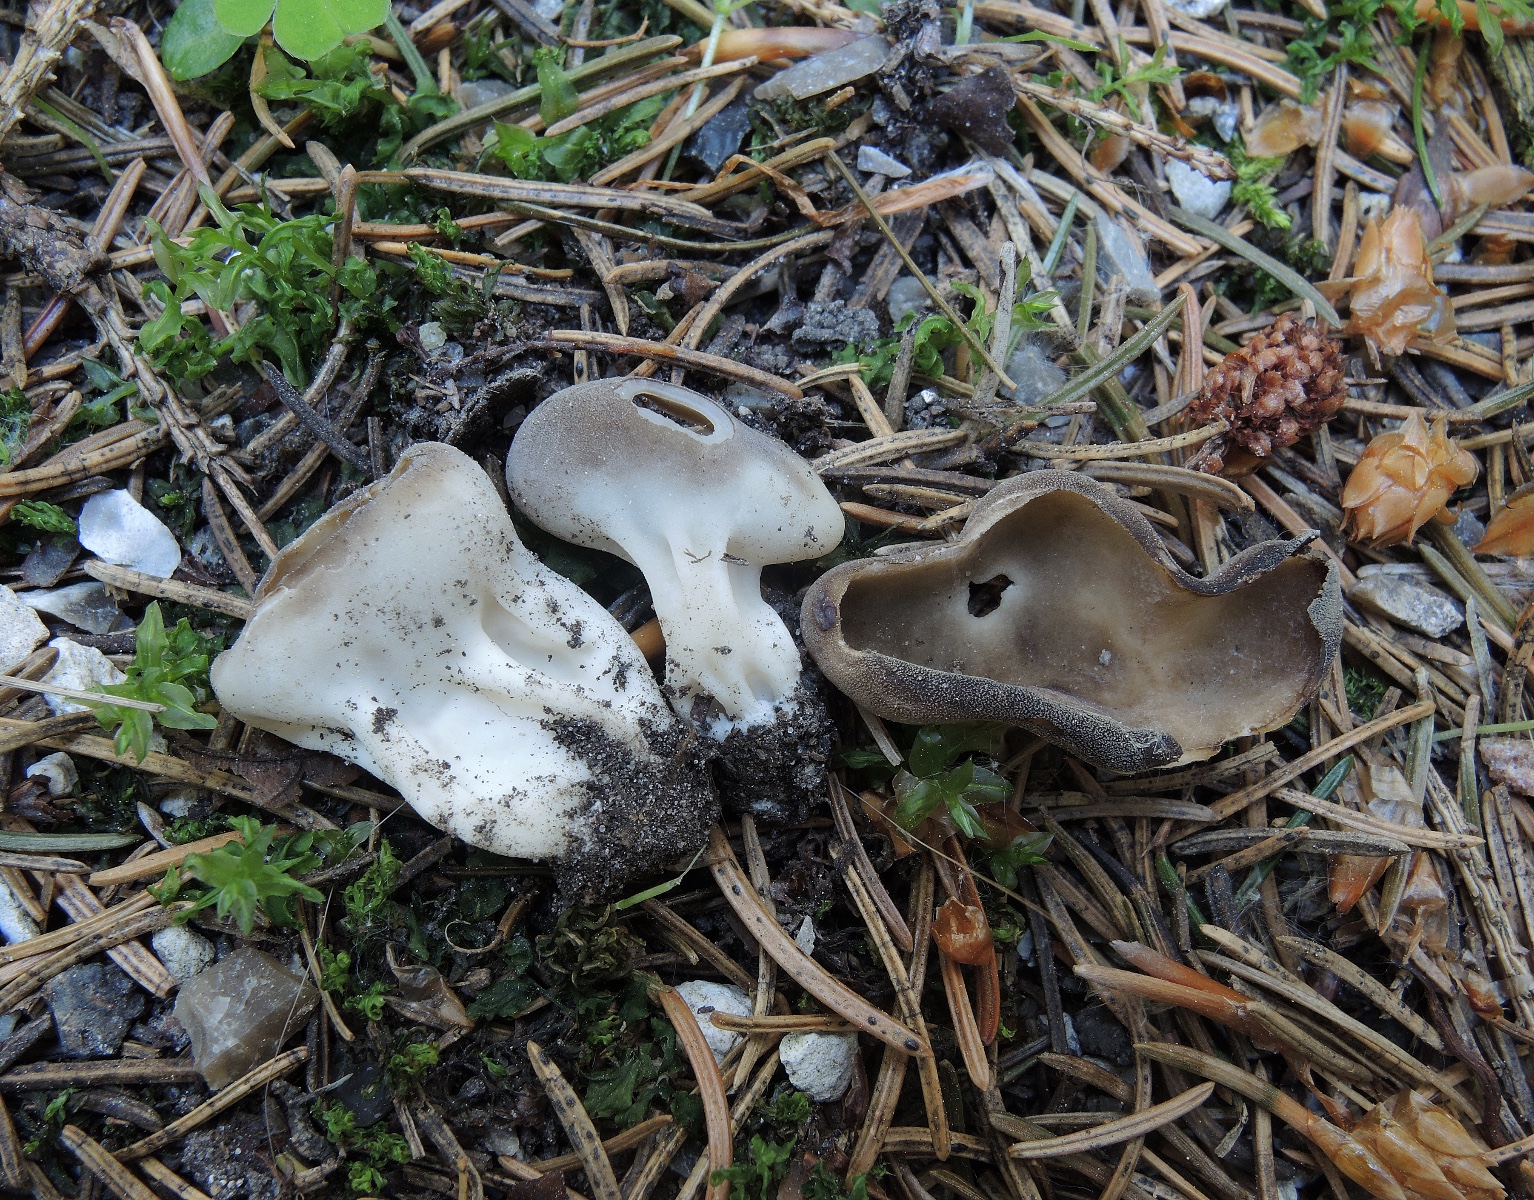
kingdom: Fungi
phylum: Ascomycota
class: Pezizomycetes
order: Pezizales
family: Helvellaceae
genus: Dissingia
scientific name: Dissingia confusa
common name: gran-foldhat
